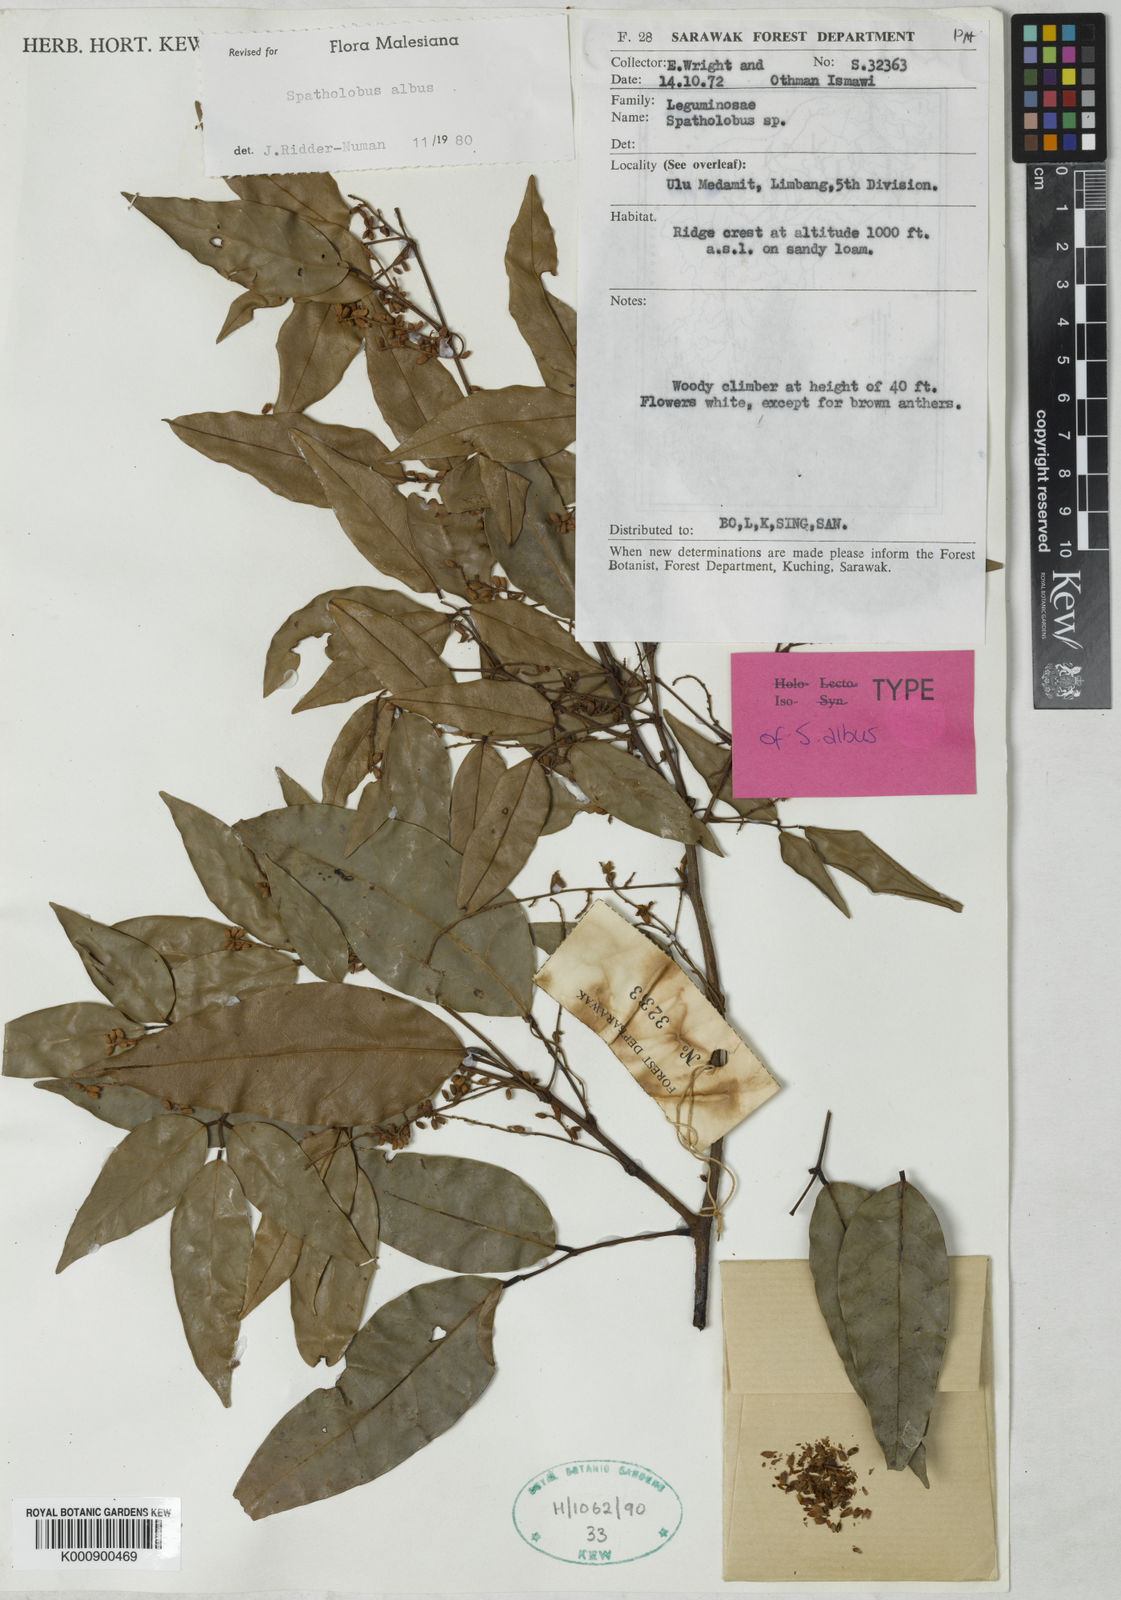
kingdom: Plantae
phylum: Tracheophyta
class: Magnoliopsida
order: Fabales
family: Fabaceae
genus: Spatholobus
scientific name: Spatholobus albus
